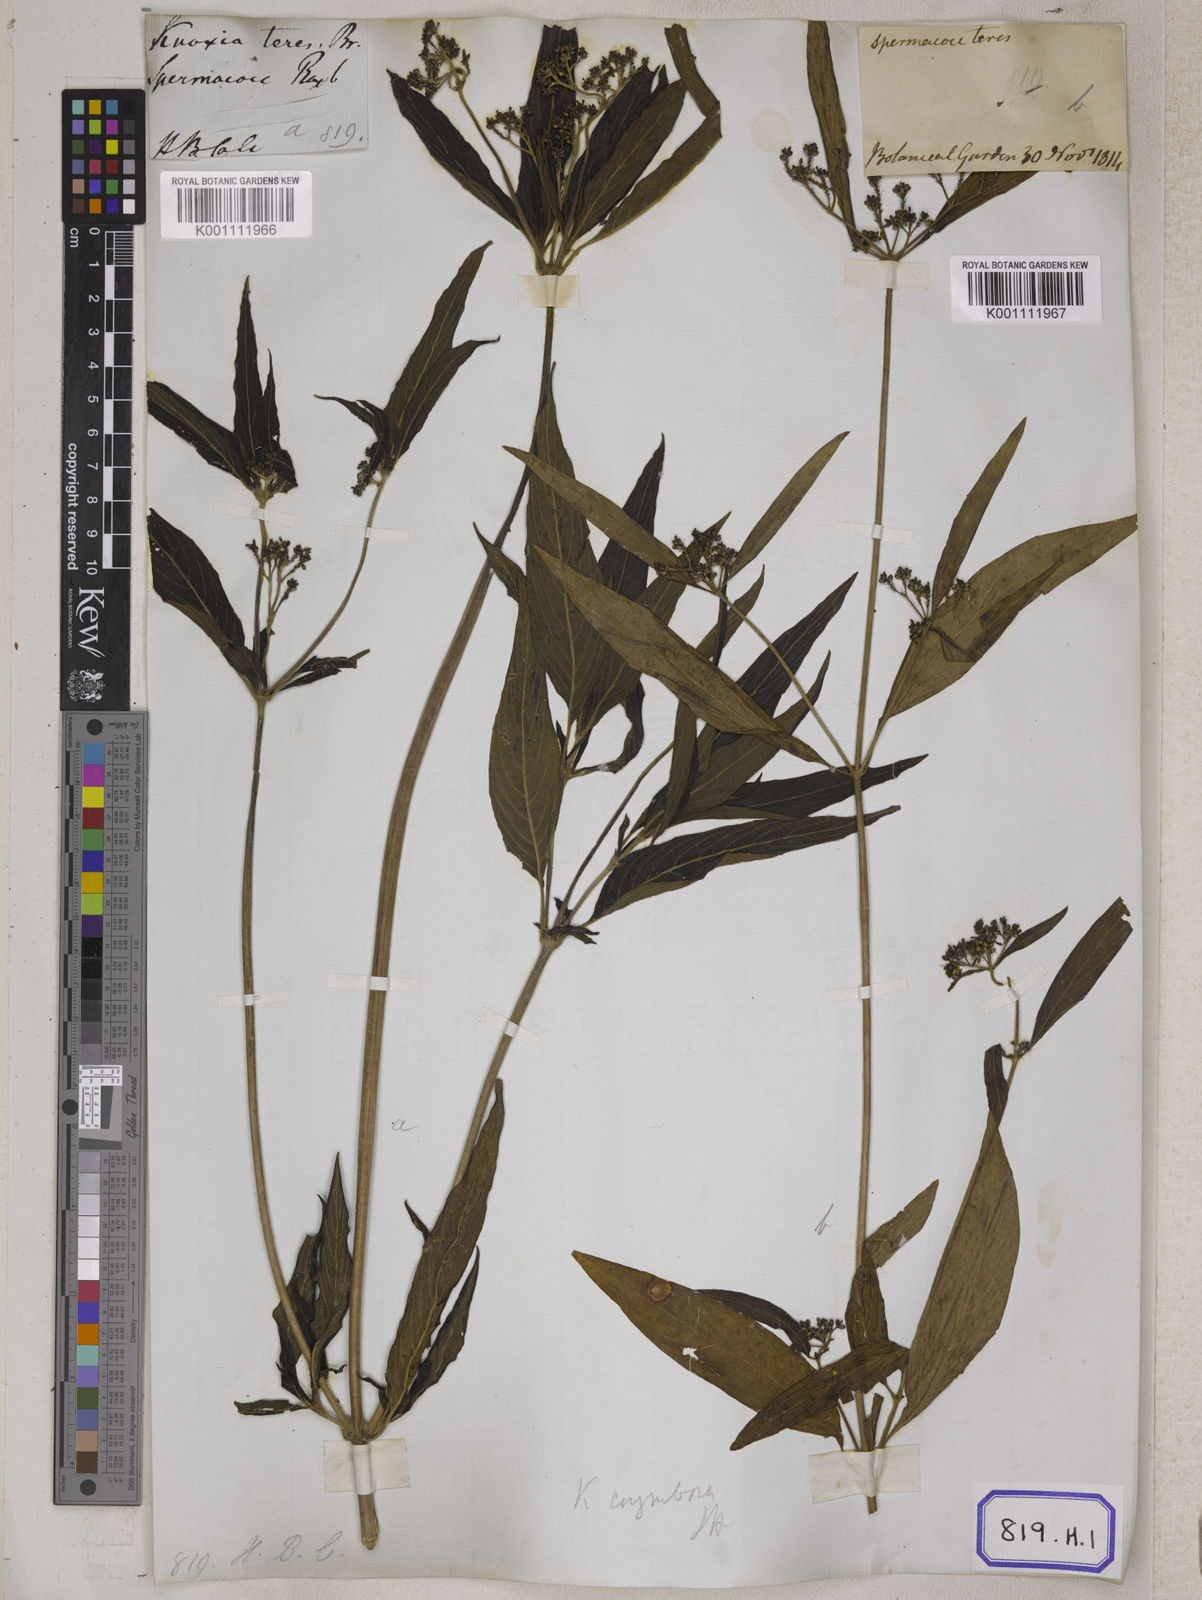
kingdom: Plantae
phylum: Tracheophyta
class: Magnoliopsida
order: Gentianales
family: Rubiaceae
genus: Knoxia
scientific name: Knoxia sumatrensis
